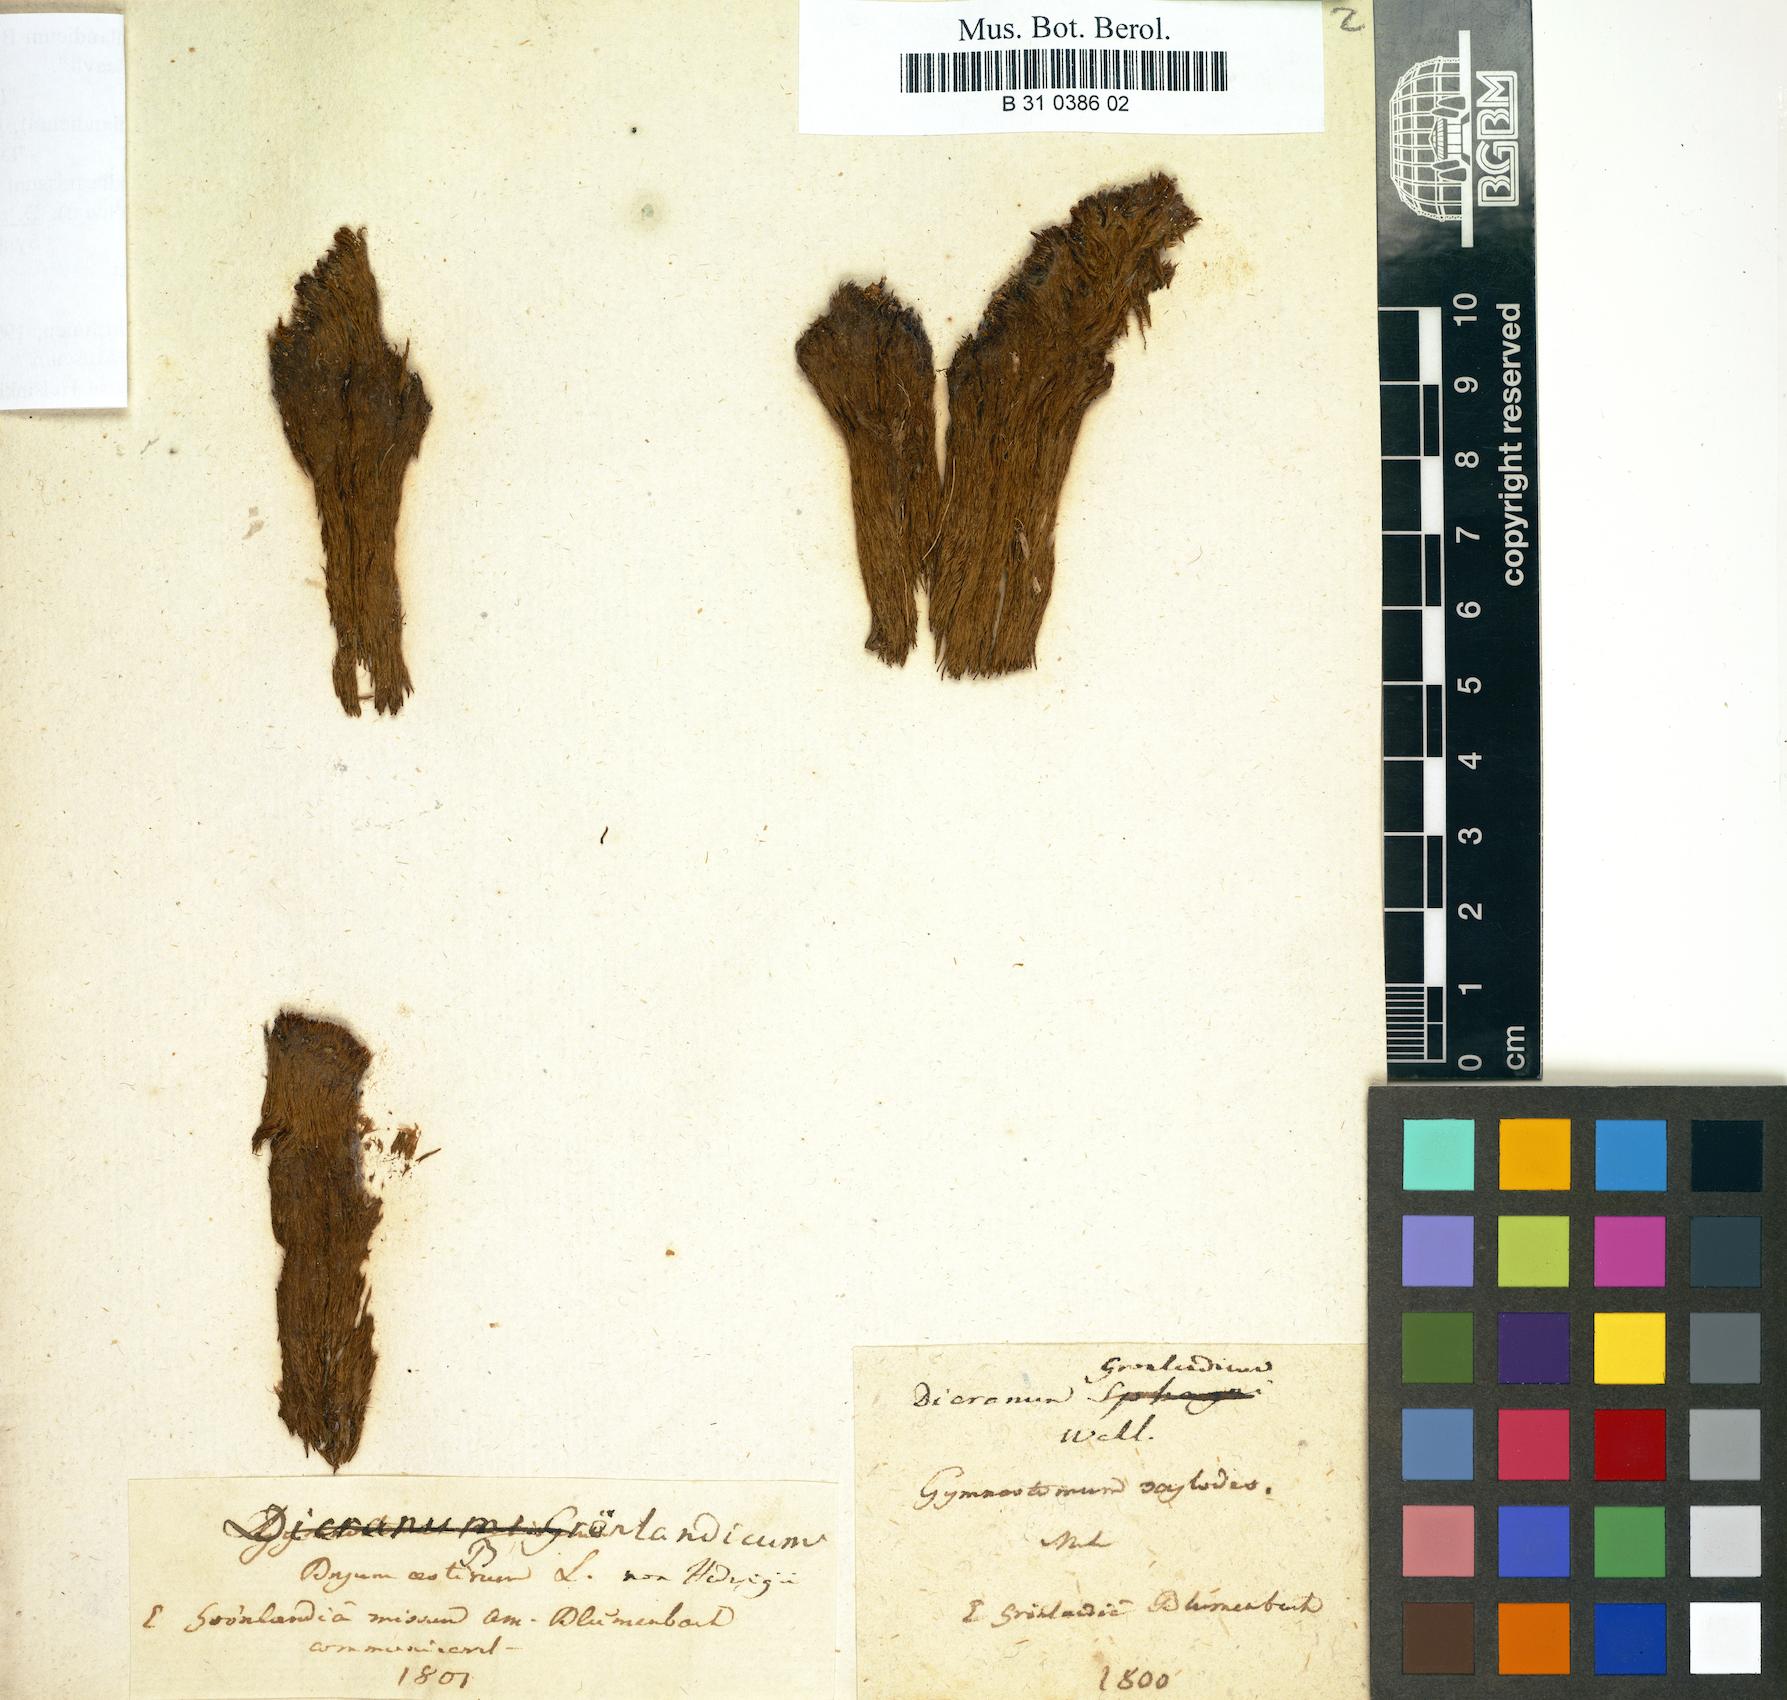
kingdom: Plantae
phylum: Bryophyta
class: Bryopsida
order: Dicranales
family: Dicranaceae
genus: Dicranum
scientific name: Dicranum groenlandicum
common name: Greenland broom moss
